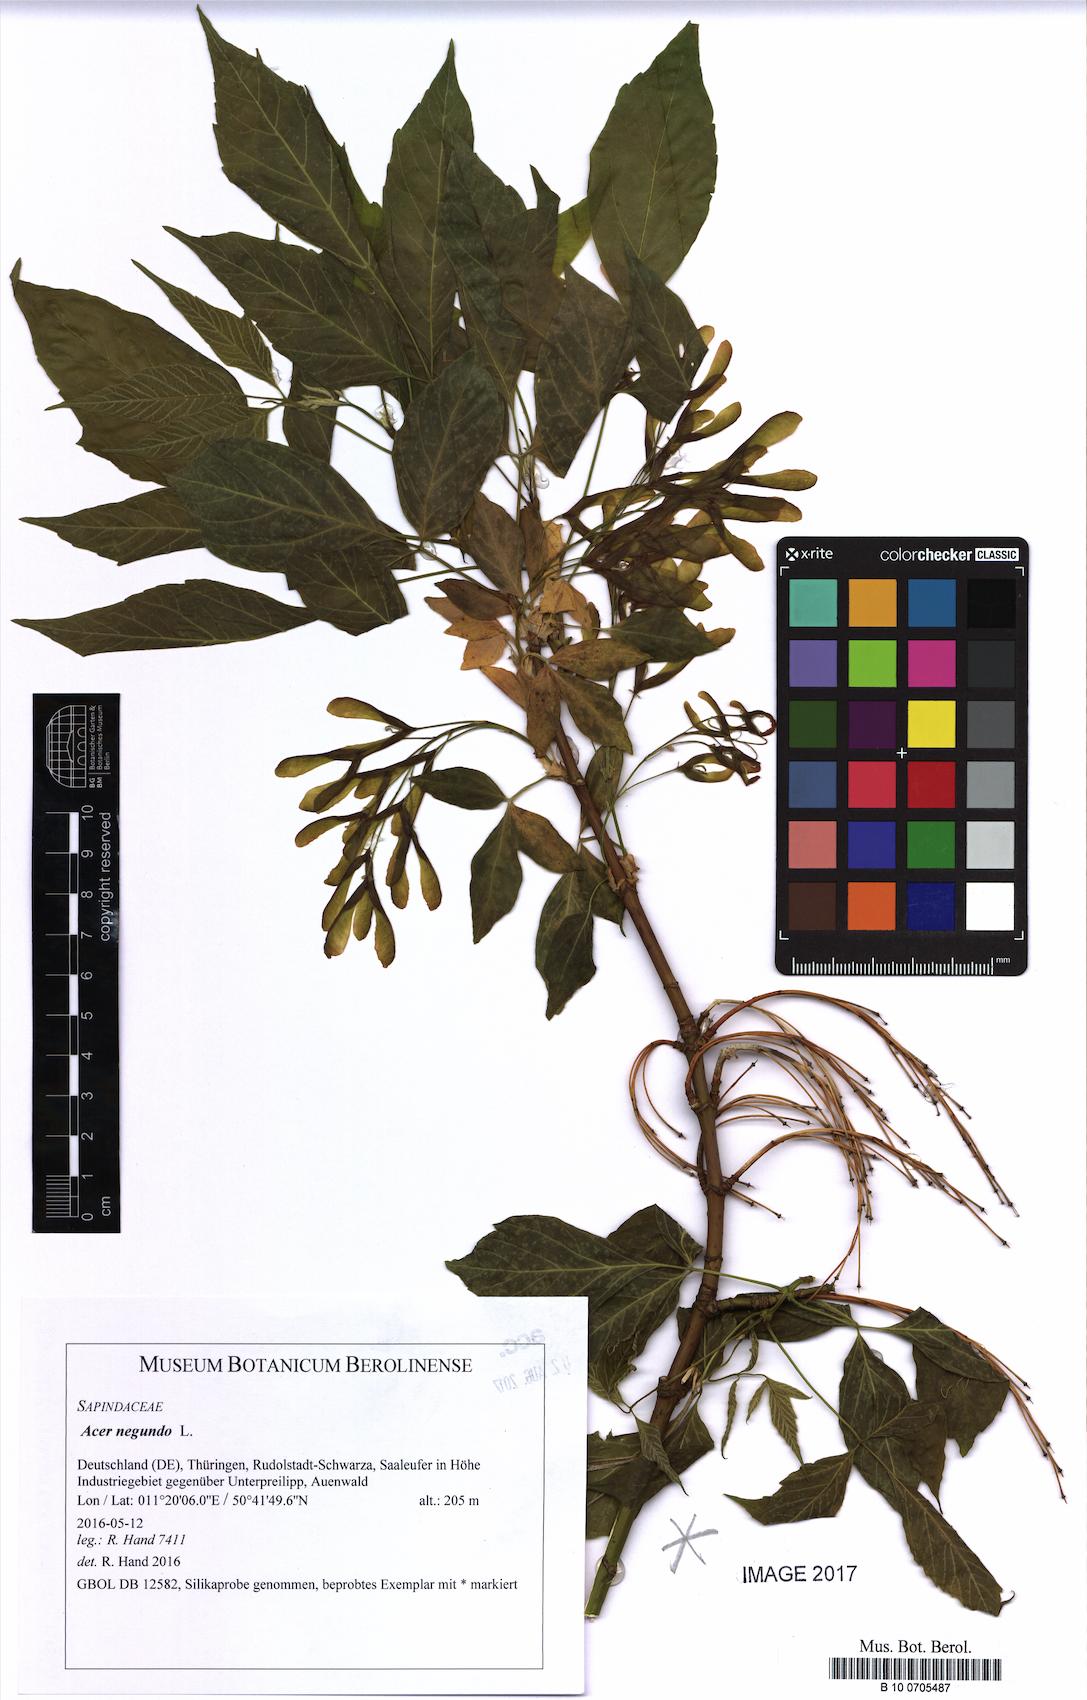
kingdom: Plantae
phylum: Tracheophyta
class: Magnoliopsida
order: Sapindales
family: Sapindaceae
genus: Acer
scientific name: Acer negundo
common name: Ashleaf maple
